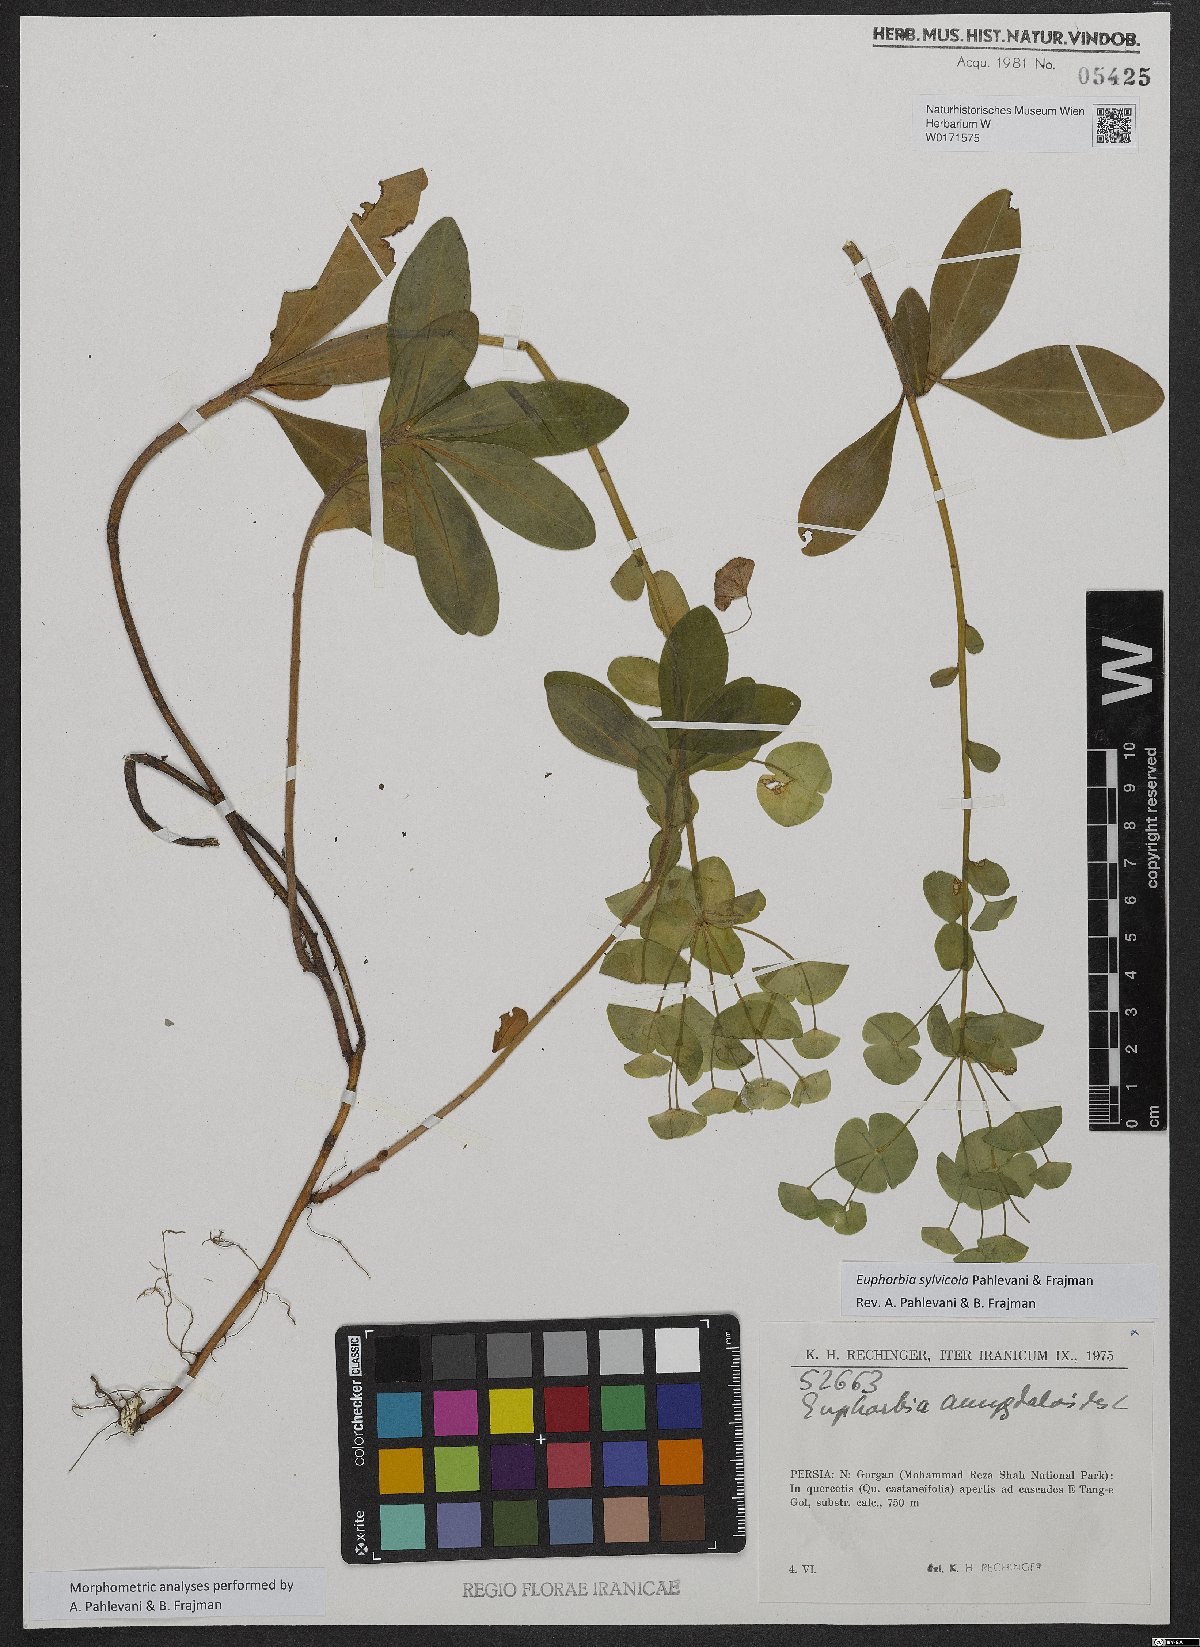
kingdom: Plantae
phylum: Tracheophyta
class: Magnoliopsida
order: Malpighiales
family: Euphorbiaceae
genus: Euphorbia
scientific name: Euphorbia juttae
